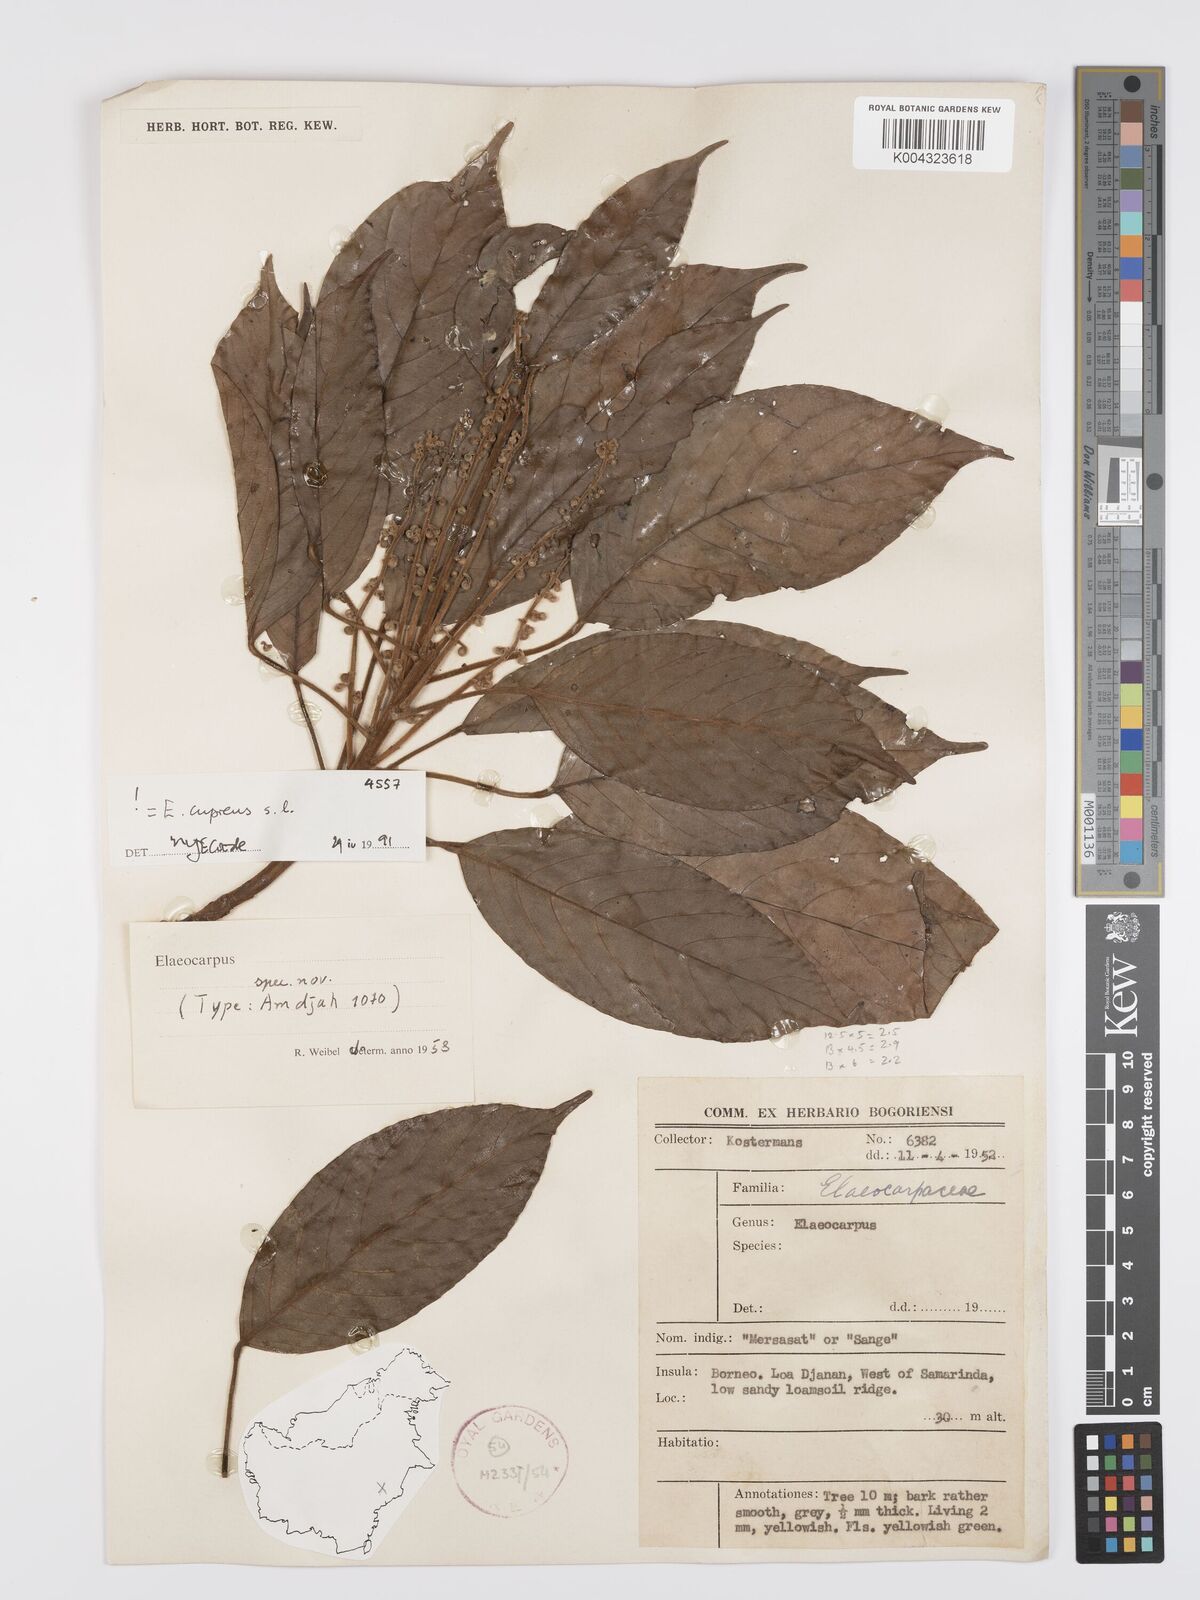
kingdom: Plantae
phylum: Tracheophyta
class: Magnoliopsida
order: Oxalidales
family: Elaeocarpaceae
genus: Elaeocarpus
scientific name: Elaeocarpus cupreus
